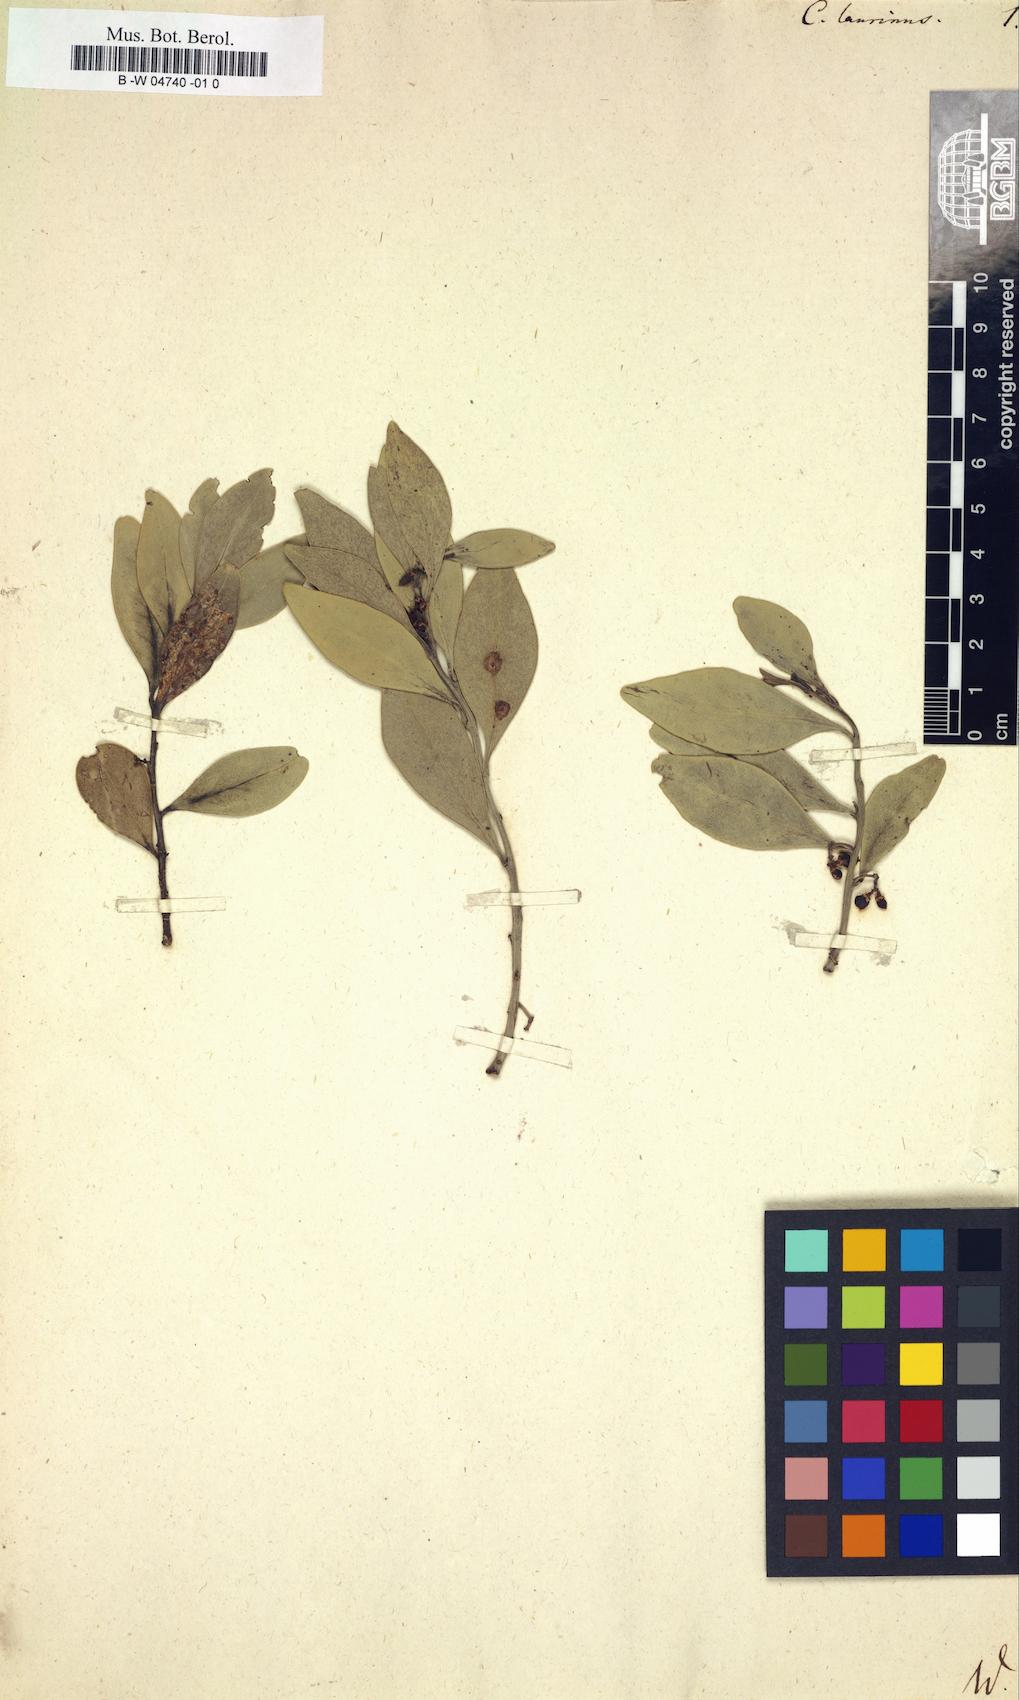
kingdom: Plantae
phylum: Tracheophyta
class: Magnoliopsida
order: Celastrales
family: Celastraceae
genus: Gymnosporia
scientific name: Gymnosporia laurina
